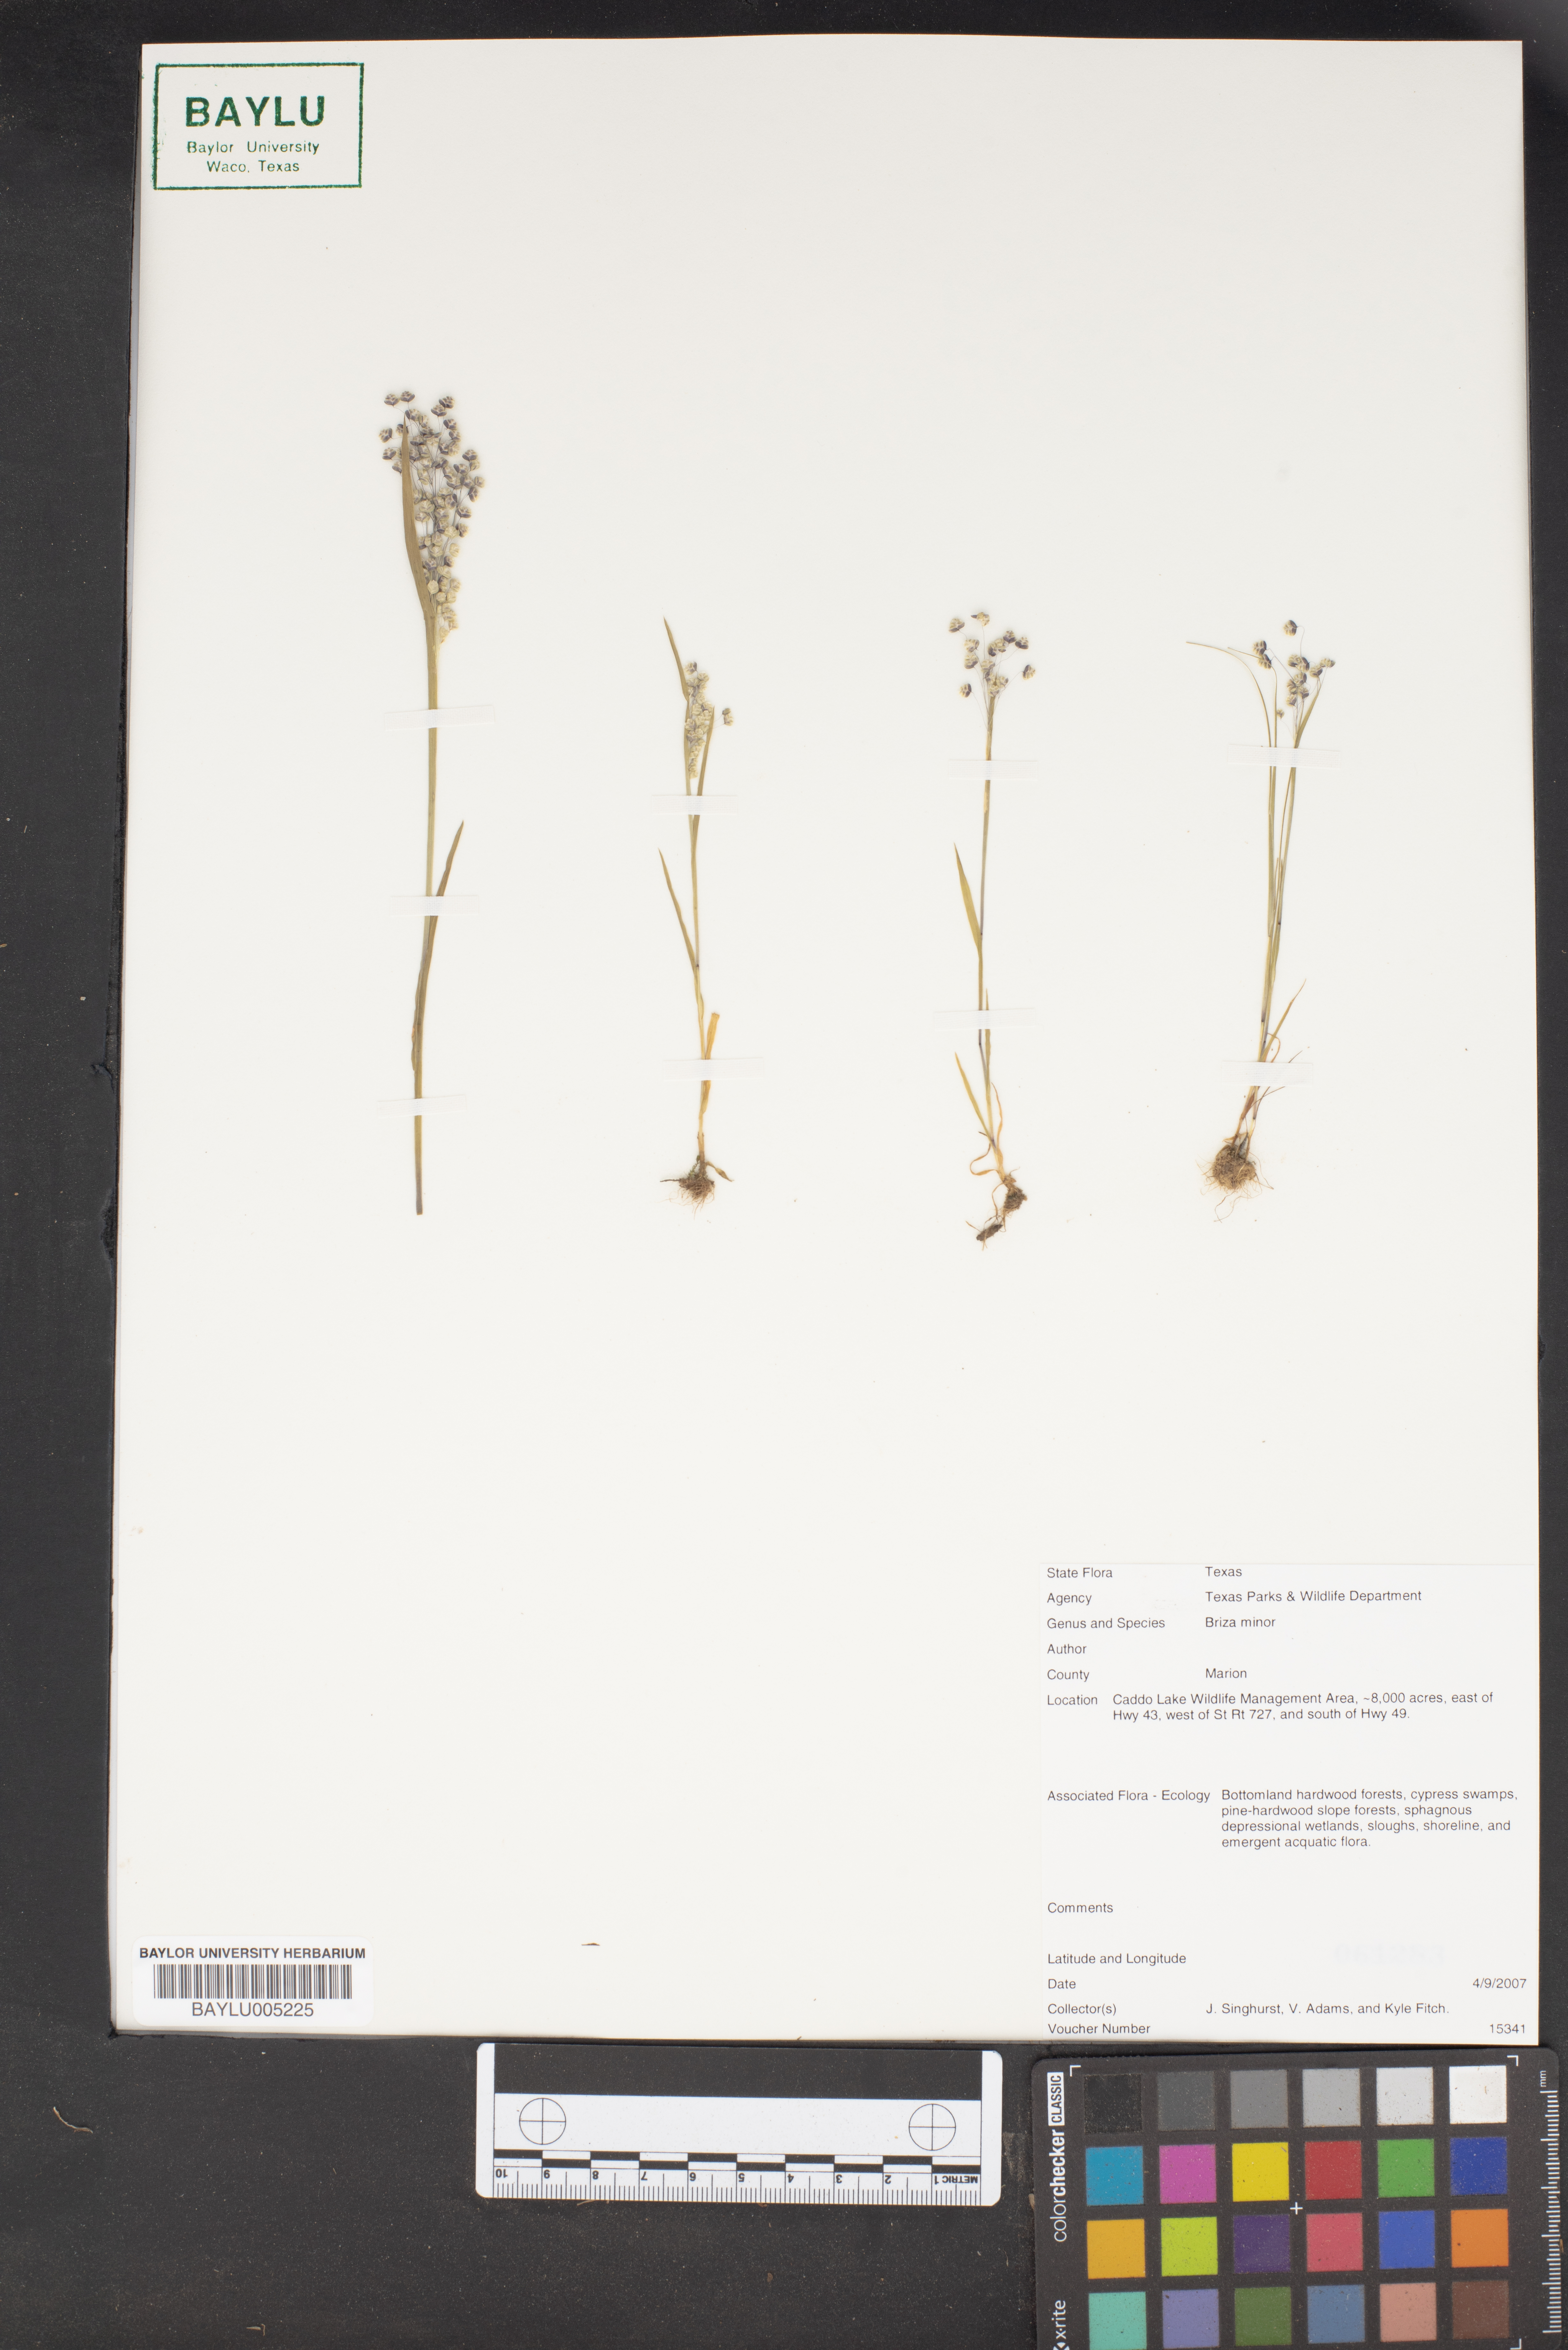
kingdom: Plantae
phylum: Tracheophyta
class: Liliopsida
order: Poales
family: Poaceae
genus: Briza
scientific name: Briza minor
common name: Lesser quaking-grass
